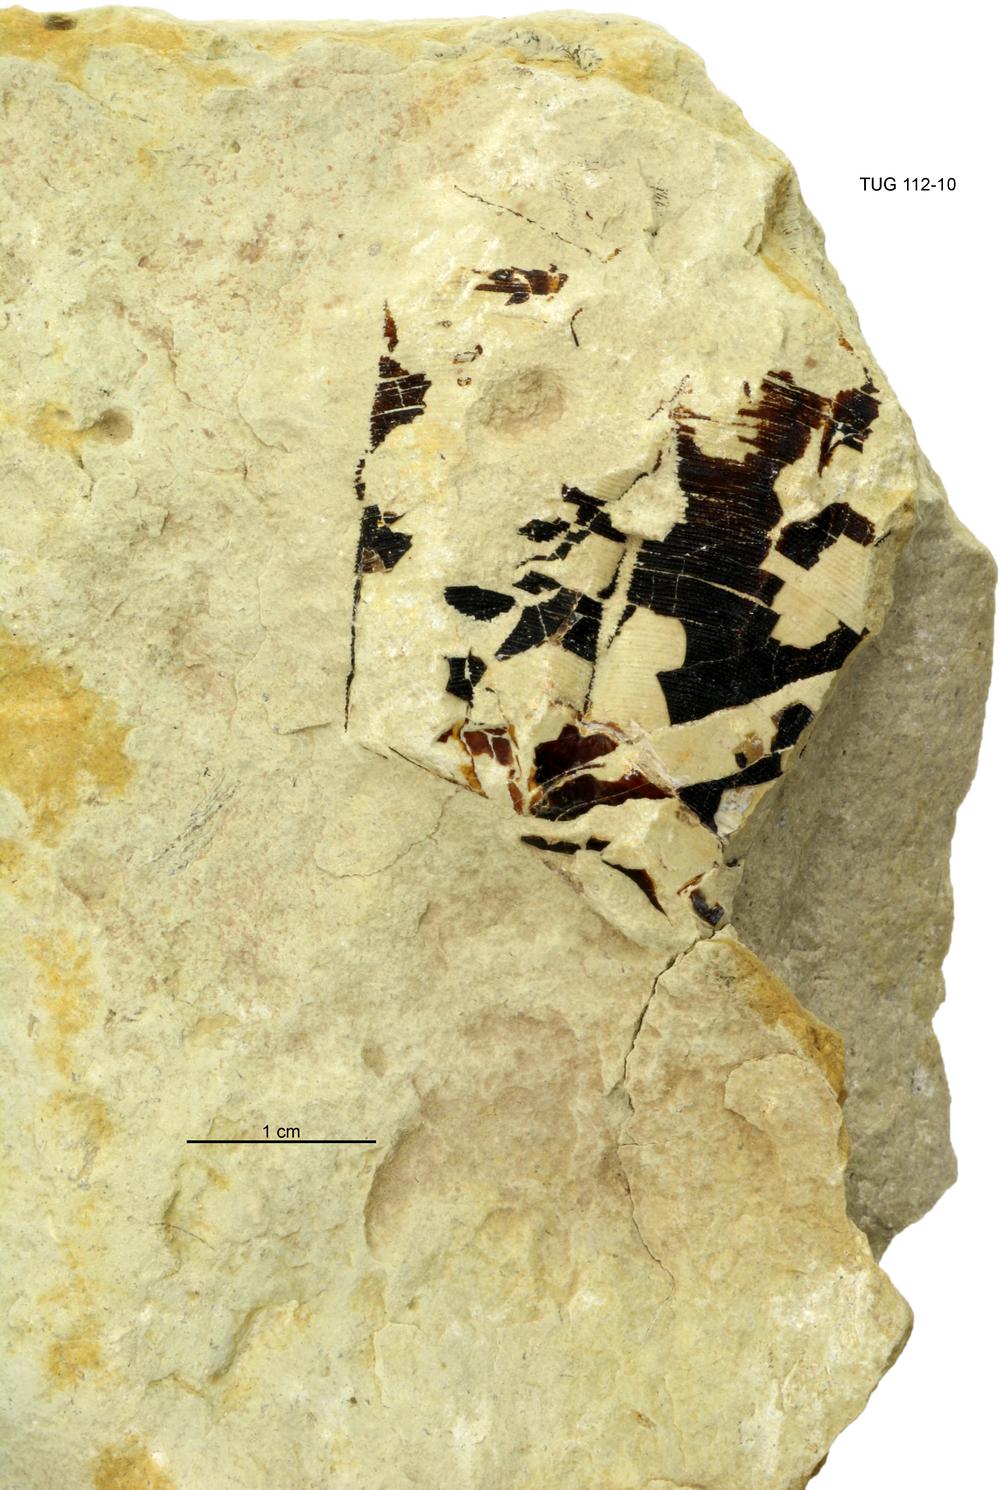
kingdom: Animalia
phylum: Cnidaria
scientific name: Cnidaria
